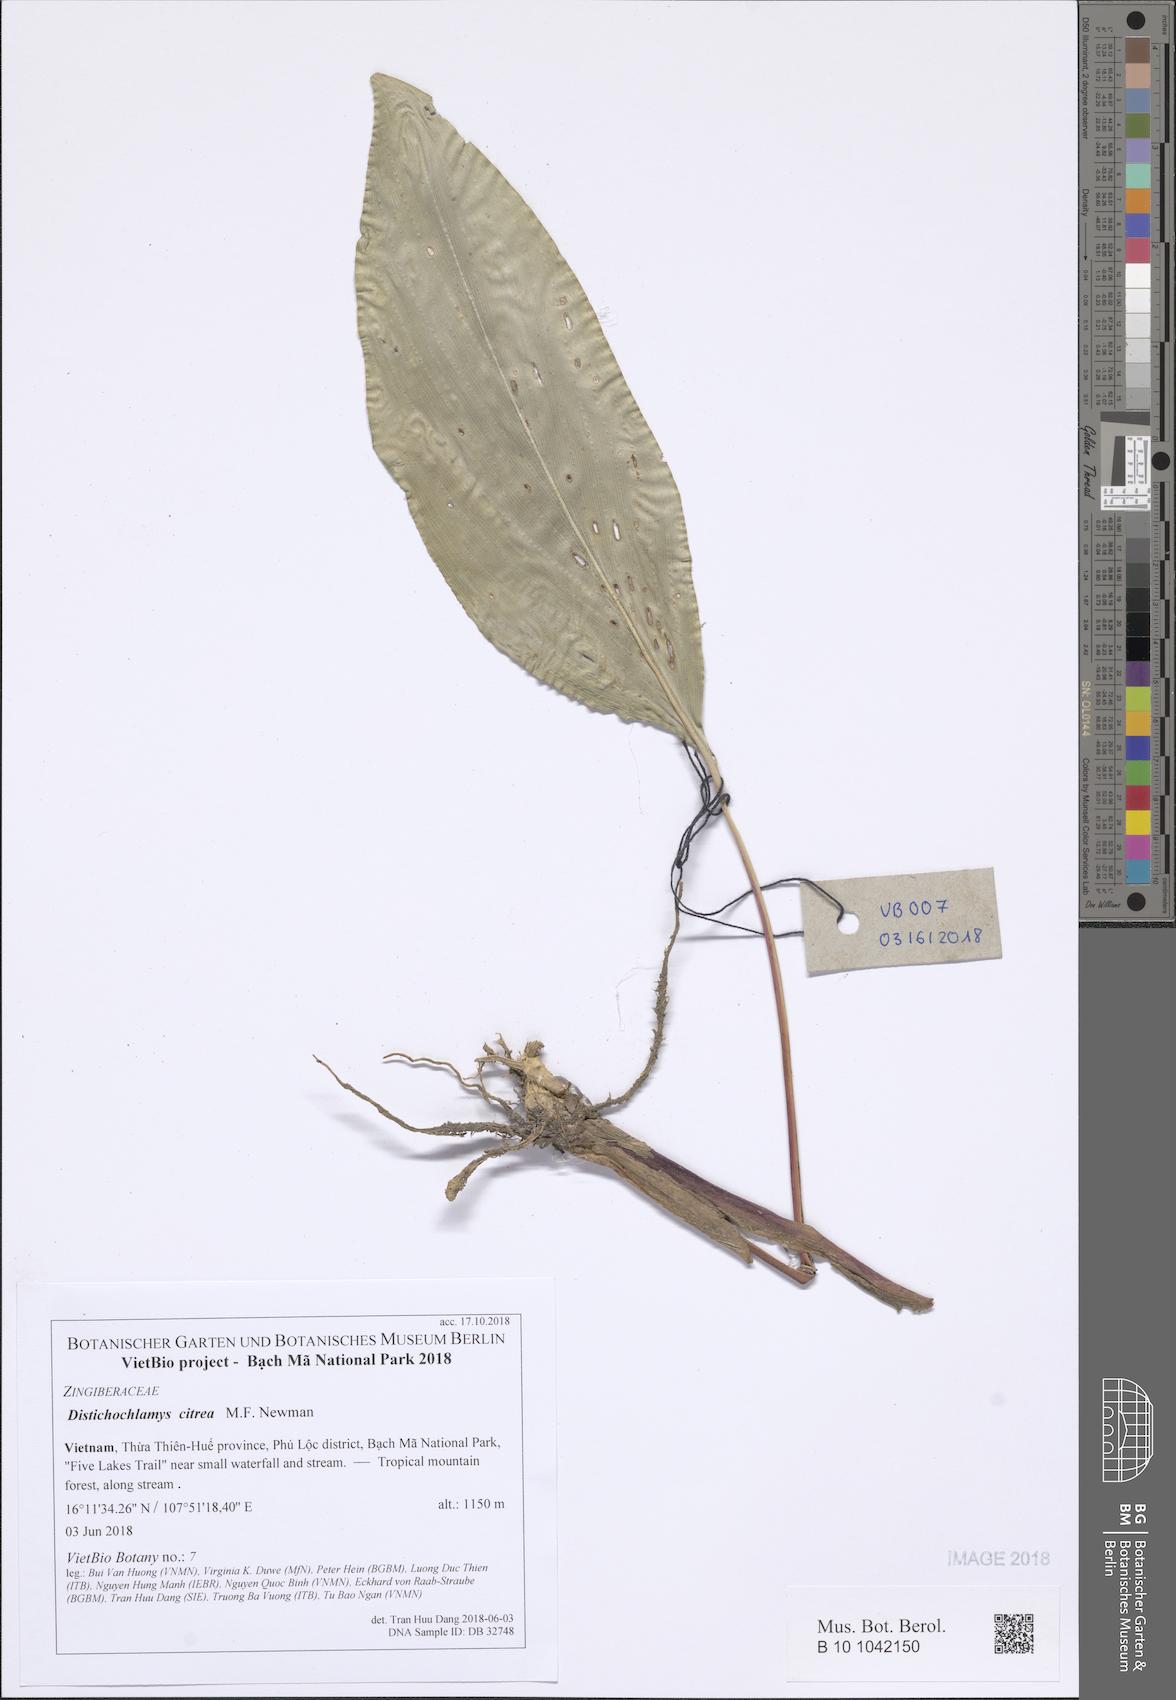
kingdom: Plantae
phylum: Tracheophyta
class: Liliopsida
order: Zingiberales
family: Zingiberaceae
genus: Distichochlamys
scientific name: Distichochlamys citrea
